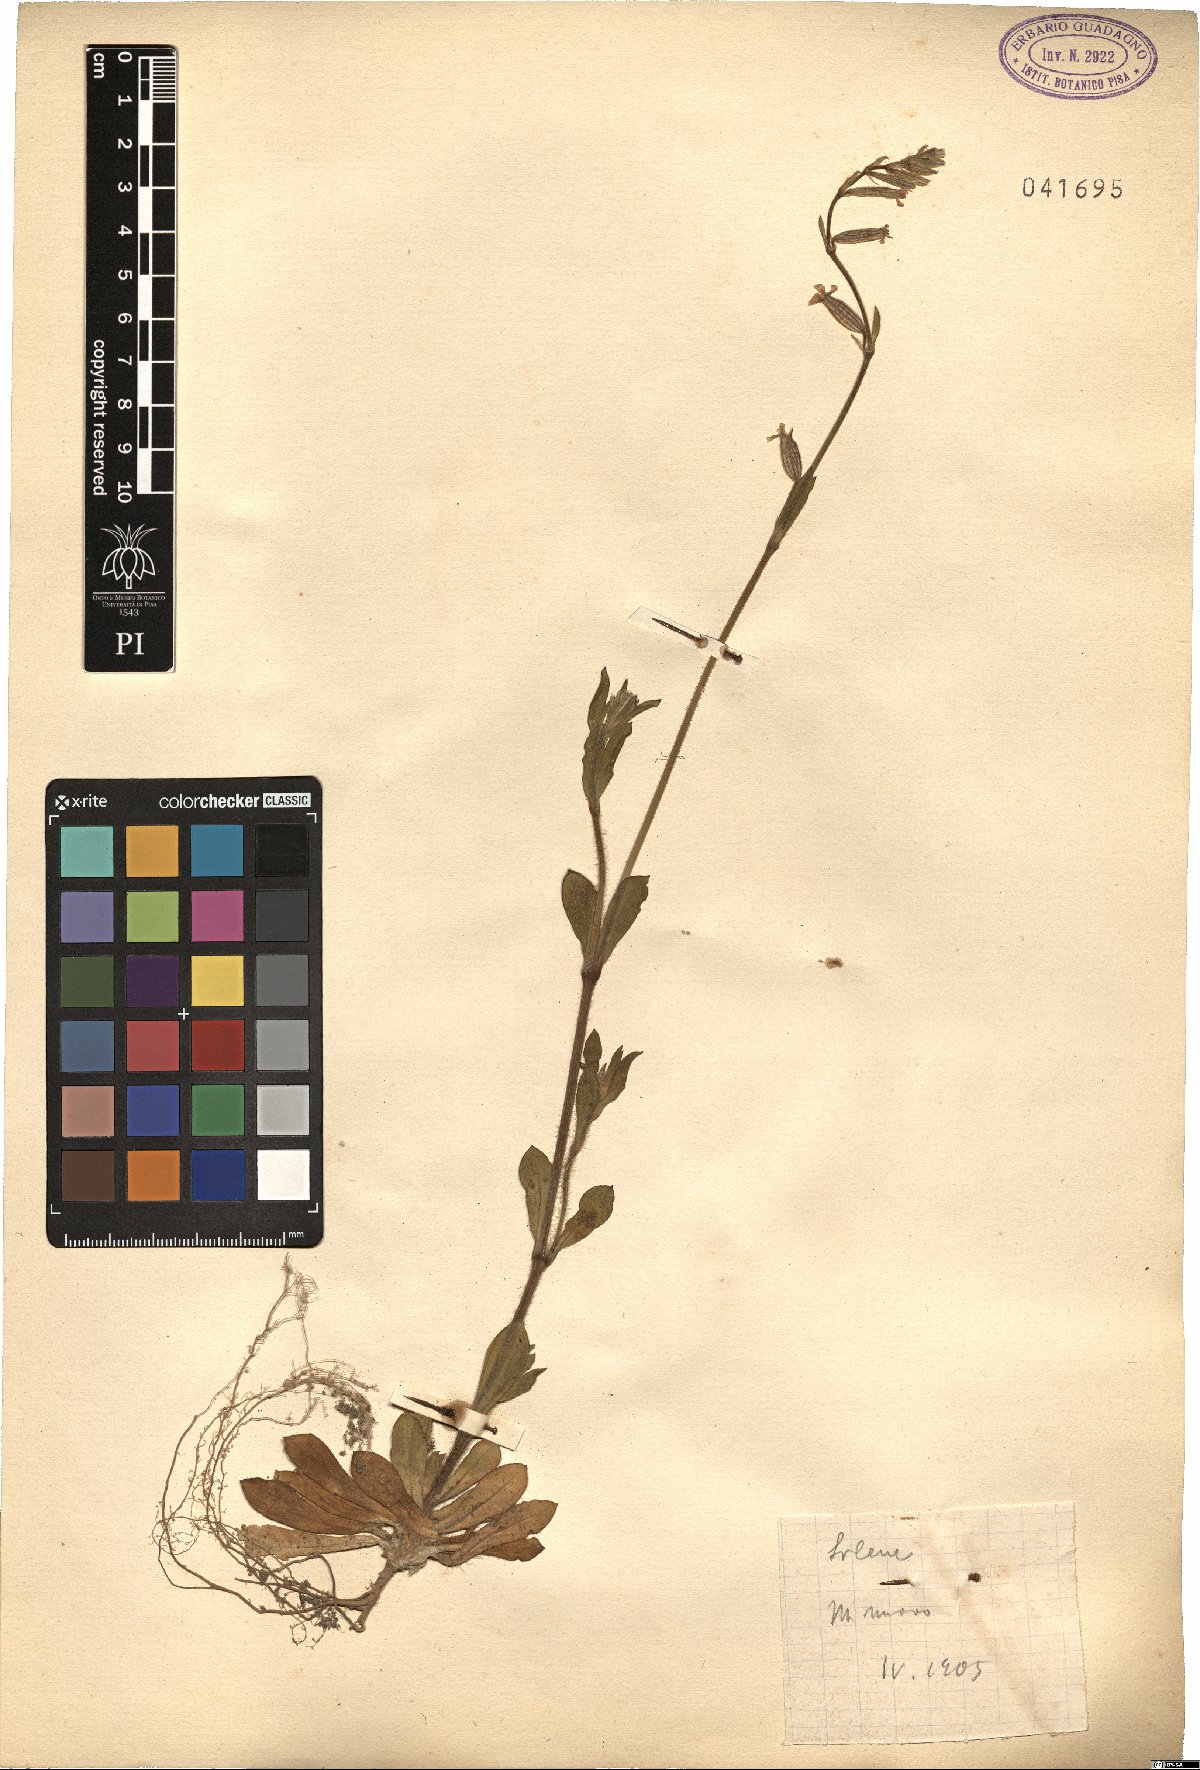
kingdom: Plantae
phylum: Tracheophyta
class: Magnoliopsida
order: Caryophyllales
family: Caryophyllaceae
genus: Silene
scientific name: Silene
